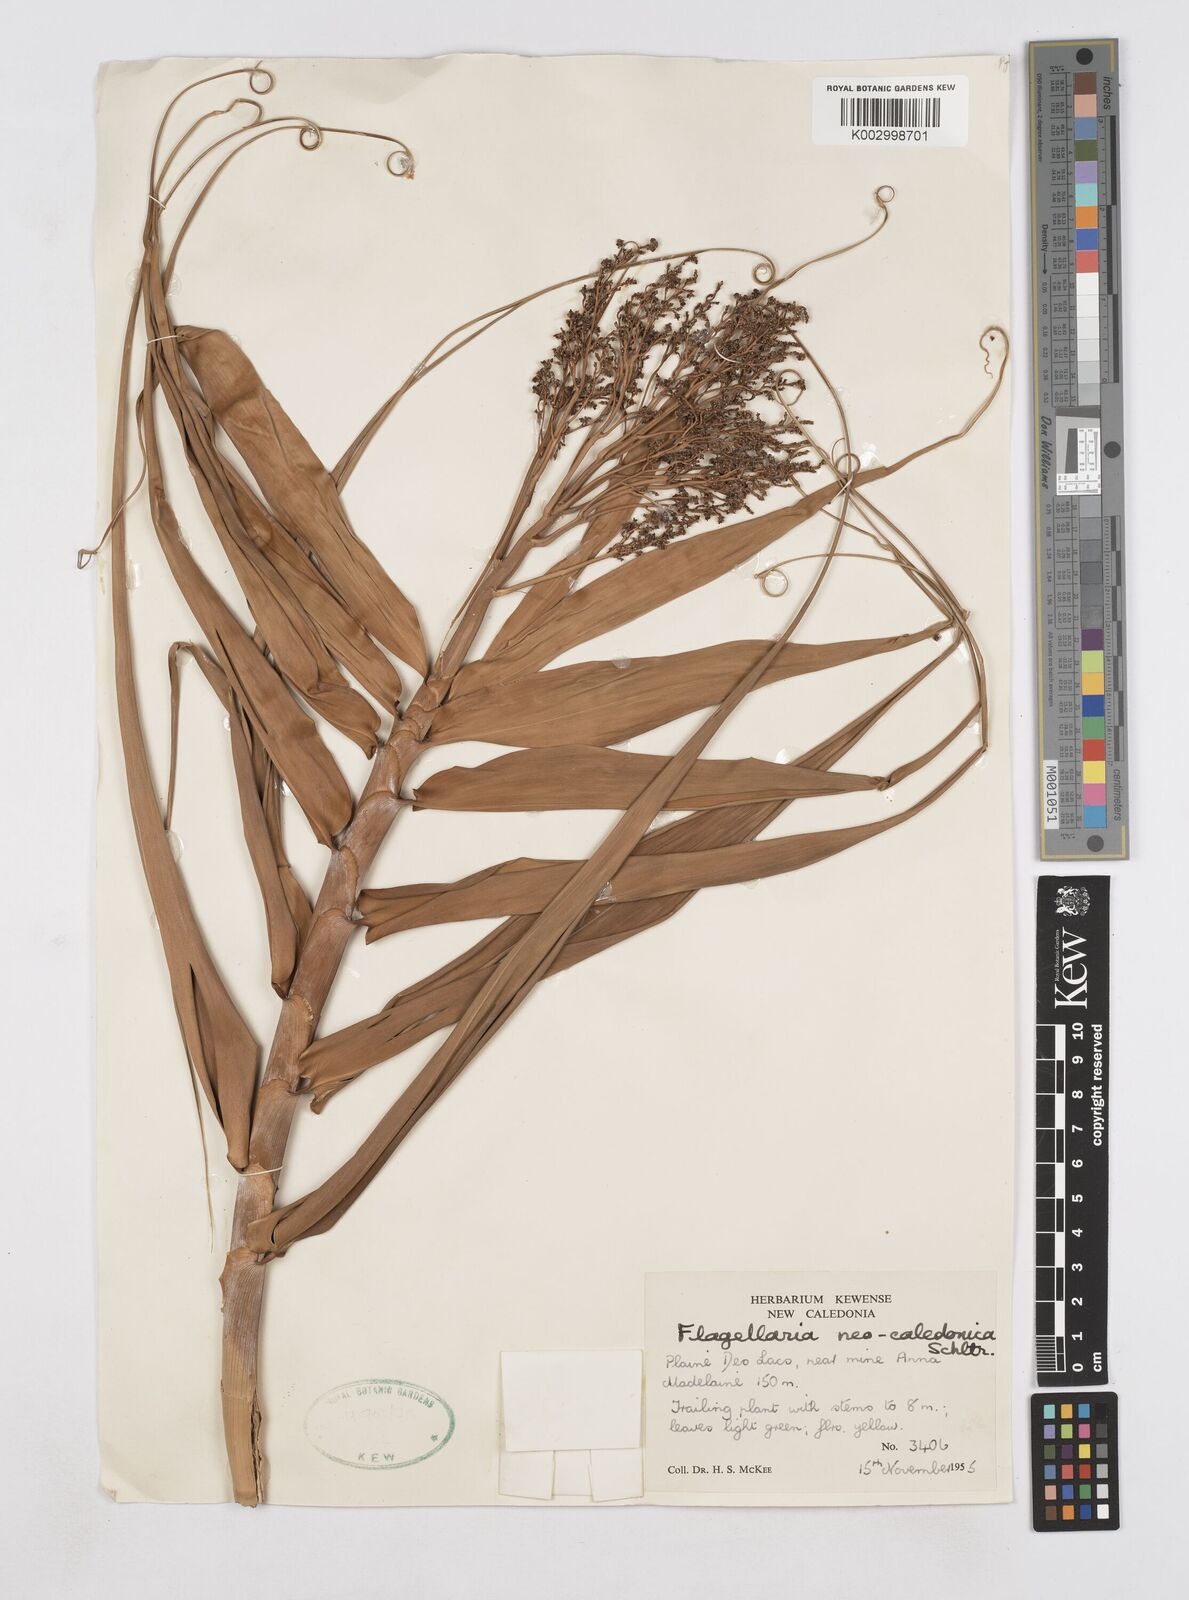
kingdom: Plantae
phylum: Tracheophyta
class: Liliopsida
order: Poales
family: Flagellariaceae
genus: Flagellaria
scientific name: Flagellaria neocaledonica
